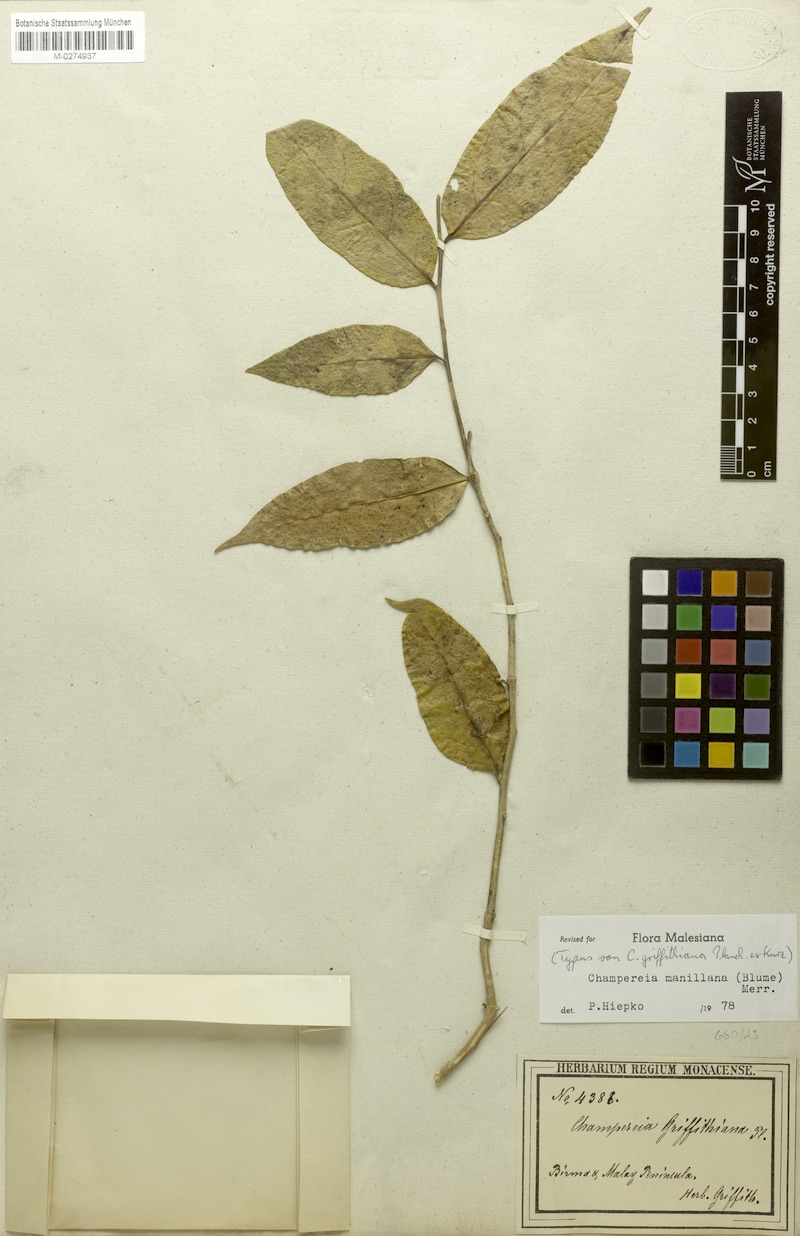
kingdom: Plantae
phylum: Tracheophyta
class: Magnoliopsida
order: Santalales
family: Opiliaceae
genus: Champereia
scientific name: Champereia manillana
